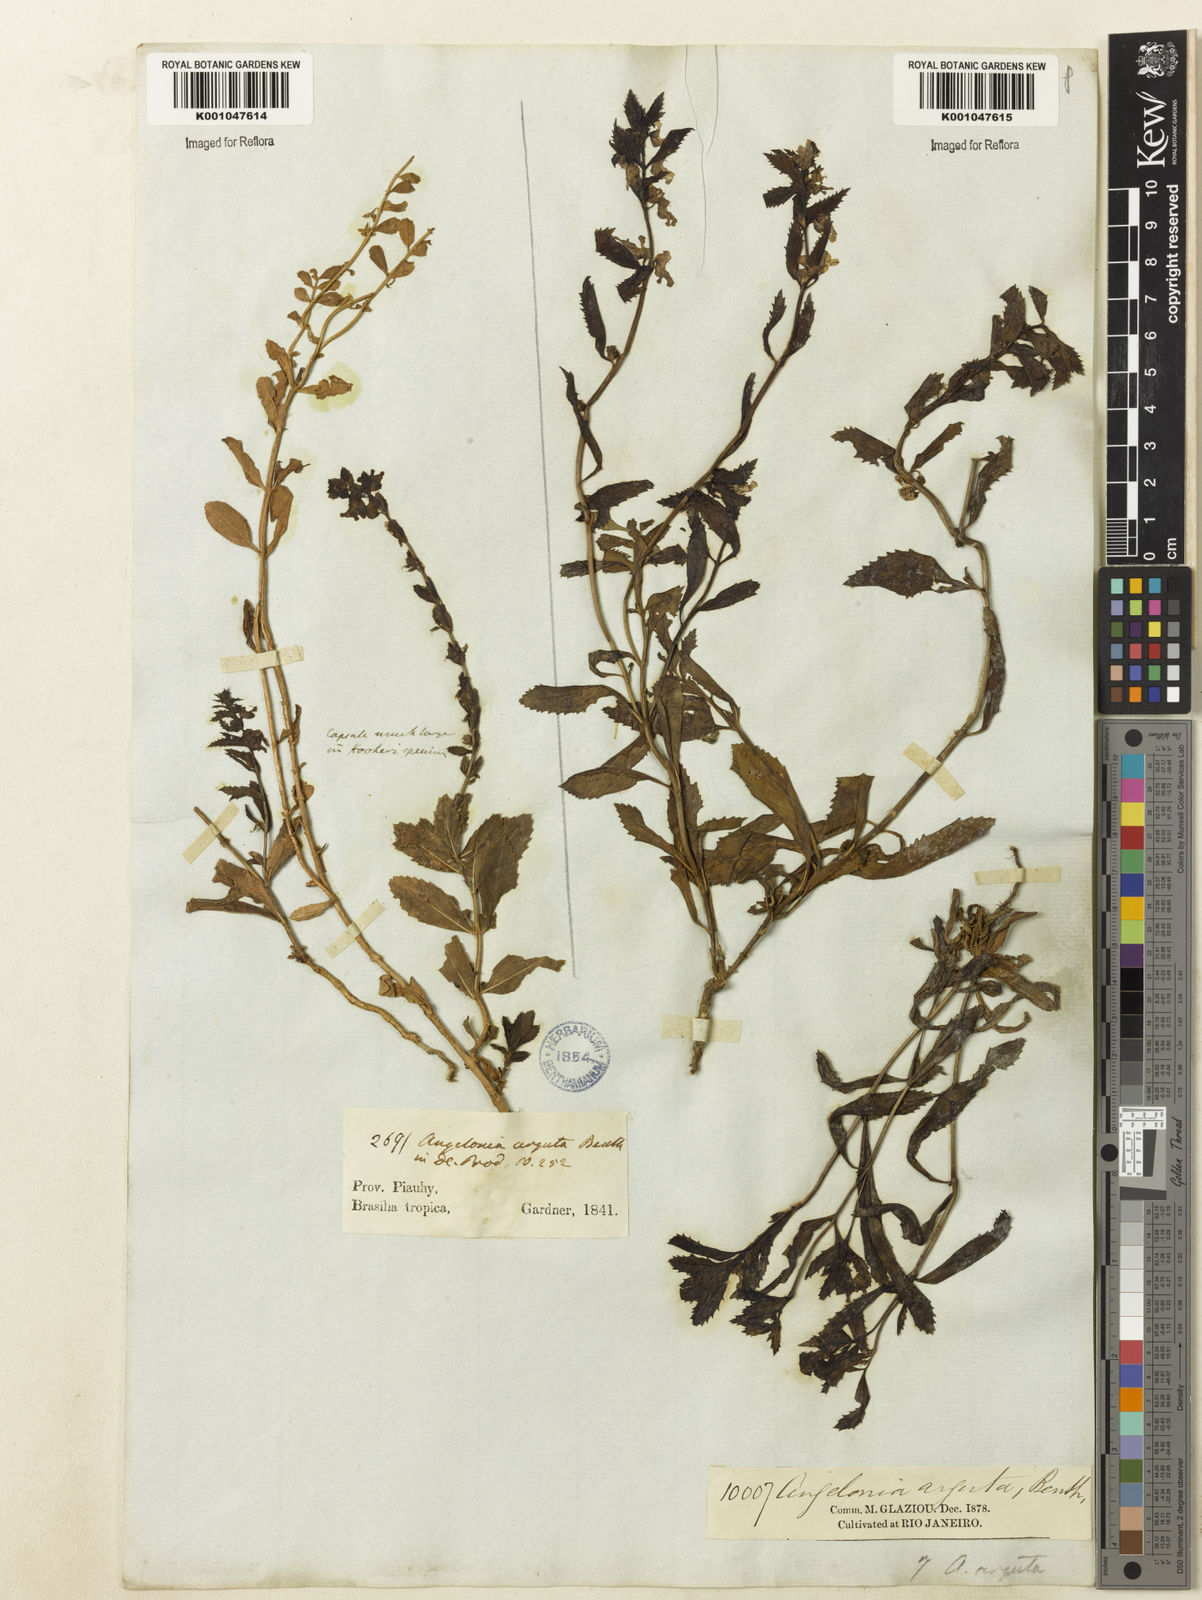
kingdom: Plantae
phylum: Tracheophyta
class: Magnoliopsida
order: Lamiales
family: Plantaginaceae
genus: Angelonia
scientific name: Angelonia arguta
